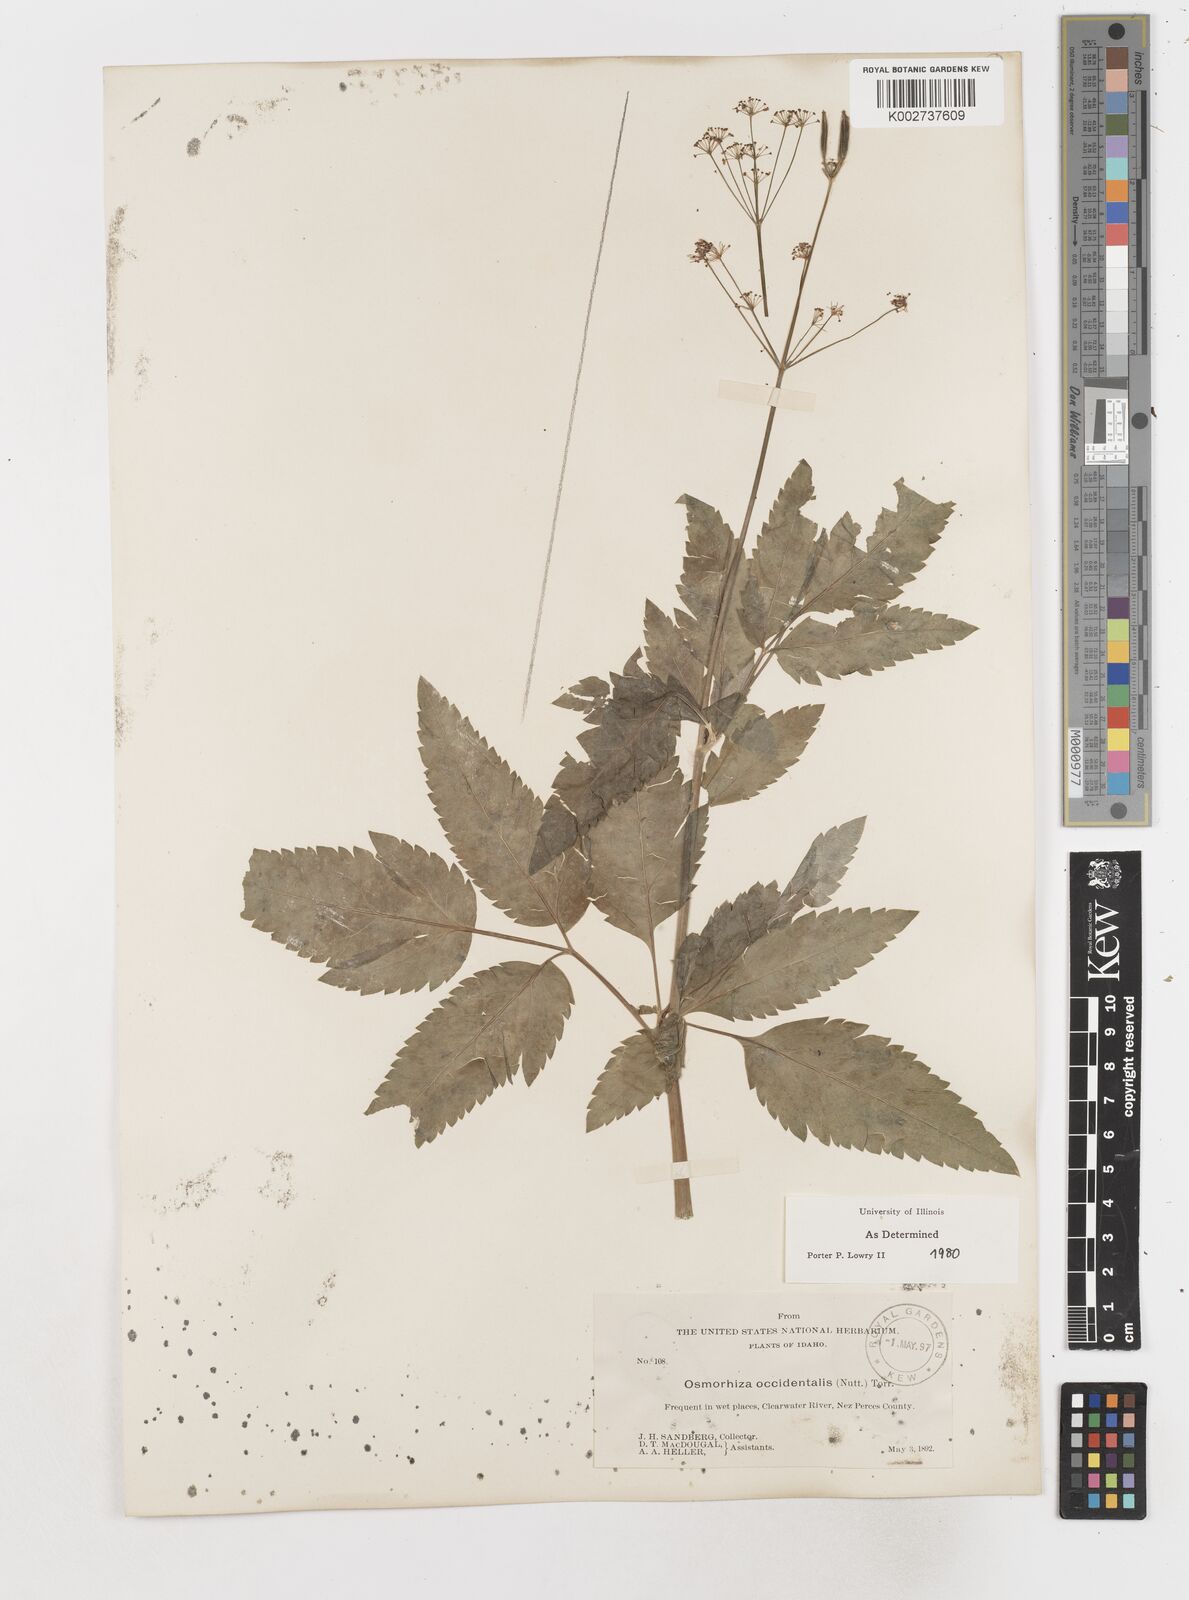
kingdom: Plantae
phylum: Tracheophyta
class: Magnoliopsida
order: Apiales
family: Apiaceae
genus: Osmorhiza
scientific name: Osmorhiza occidentalis
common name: Western sweet cicely
